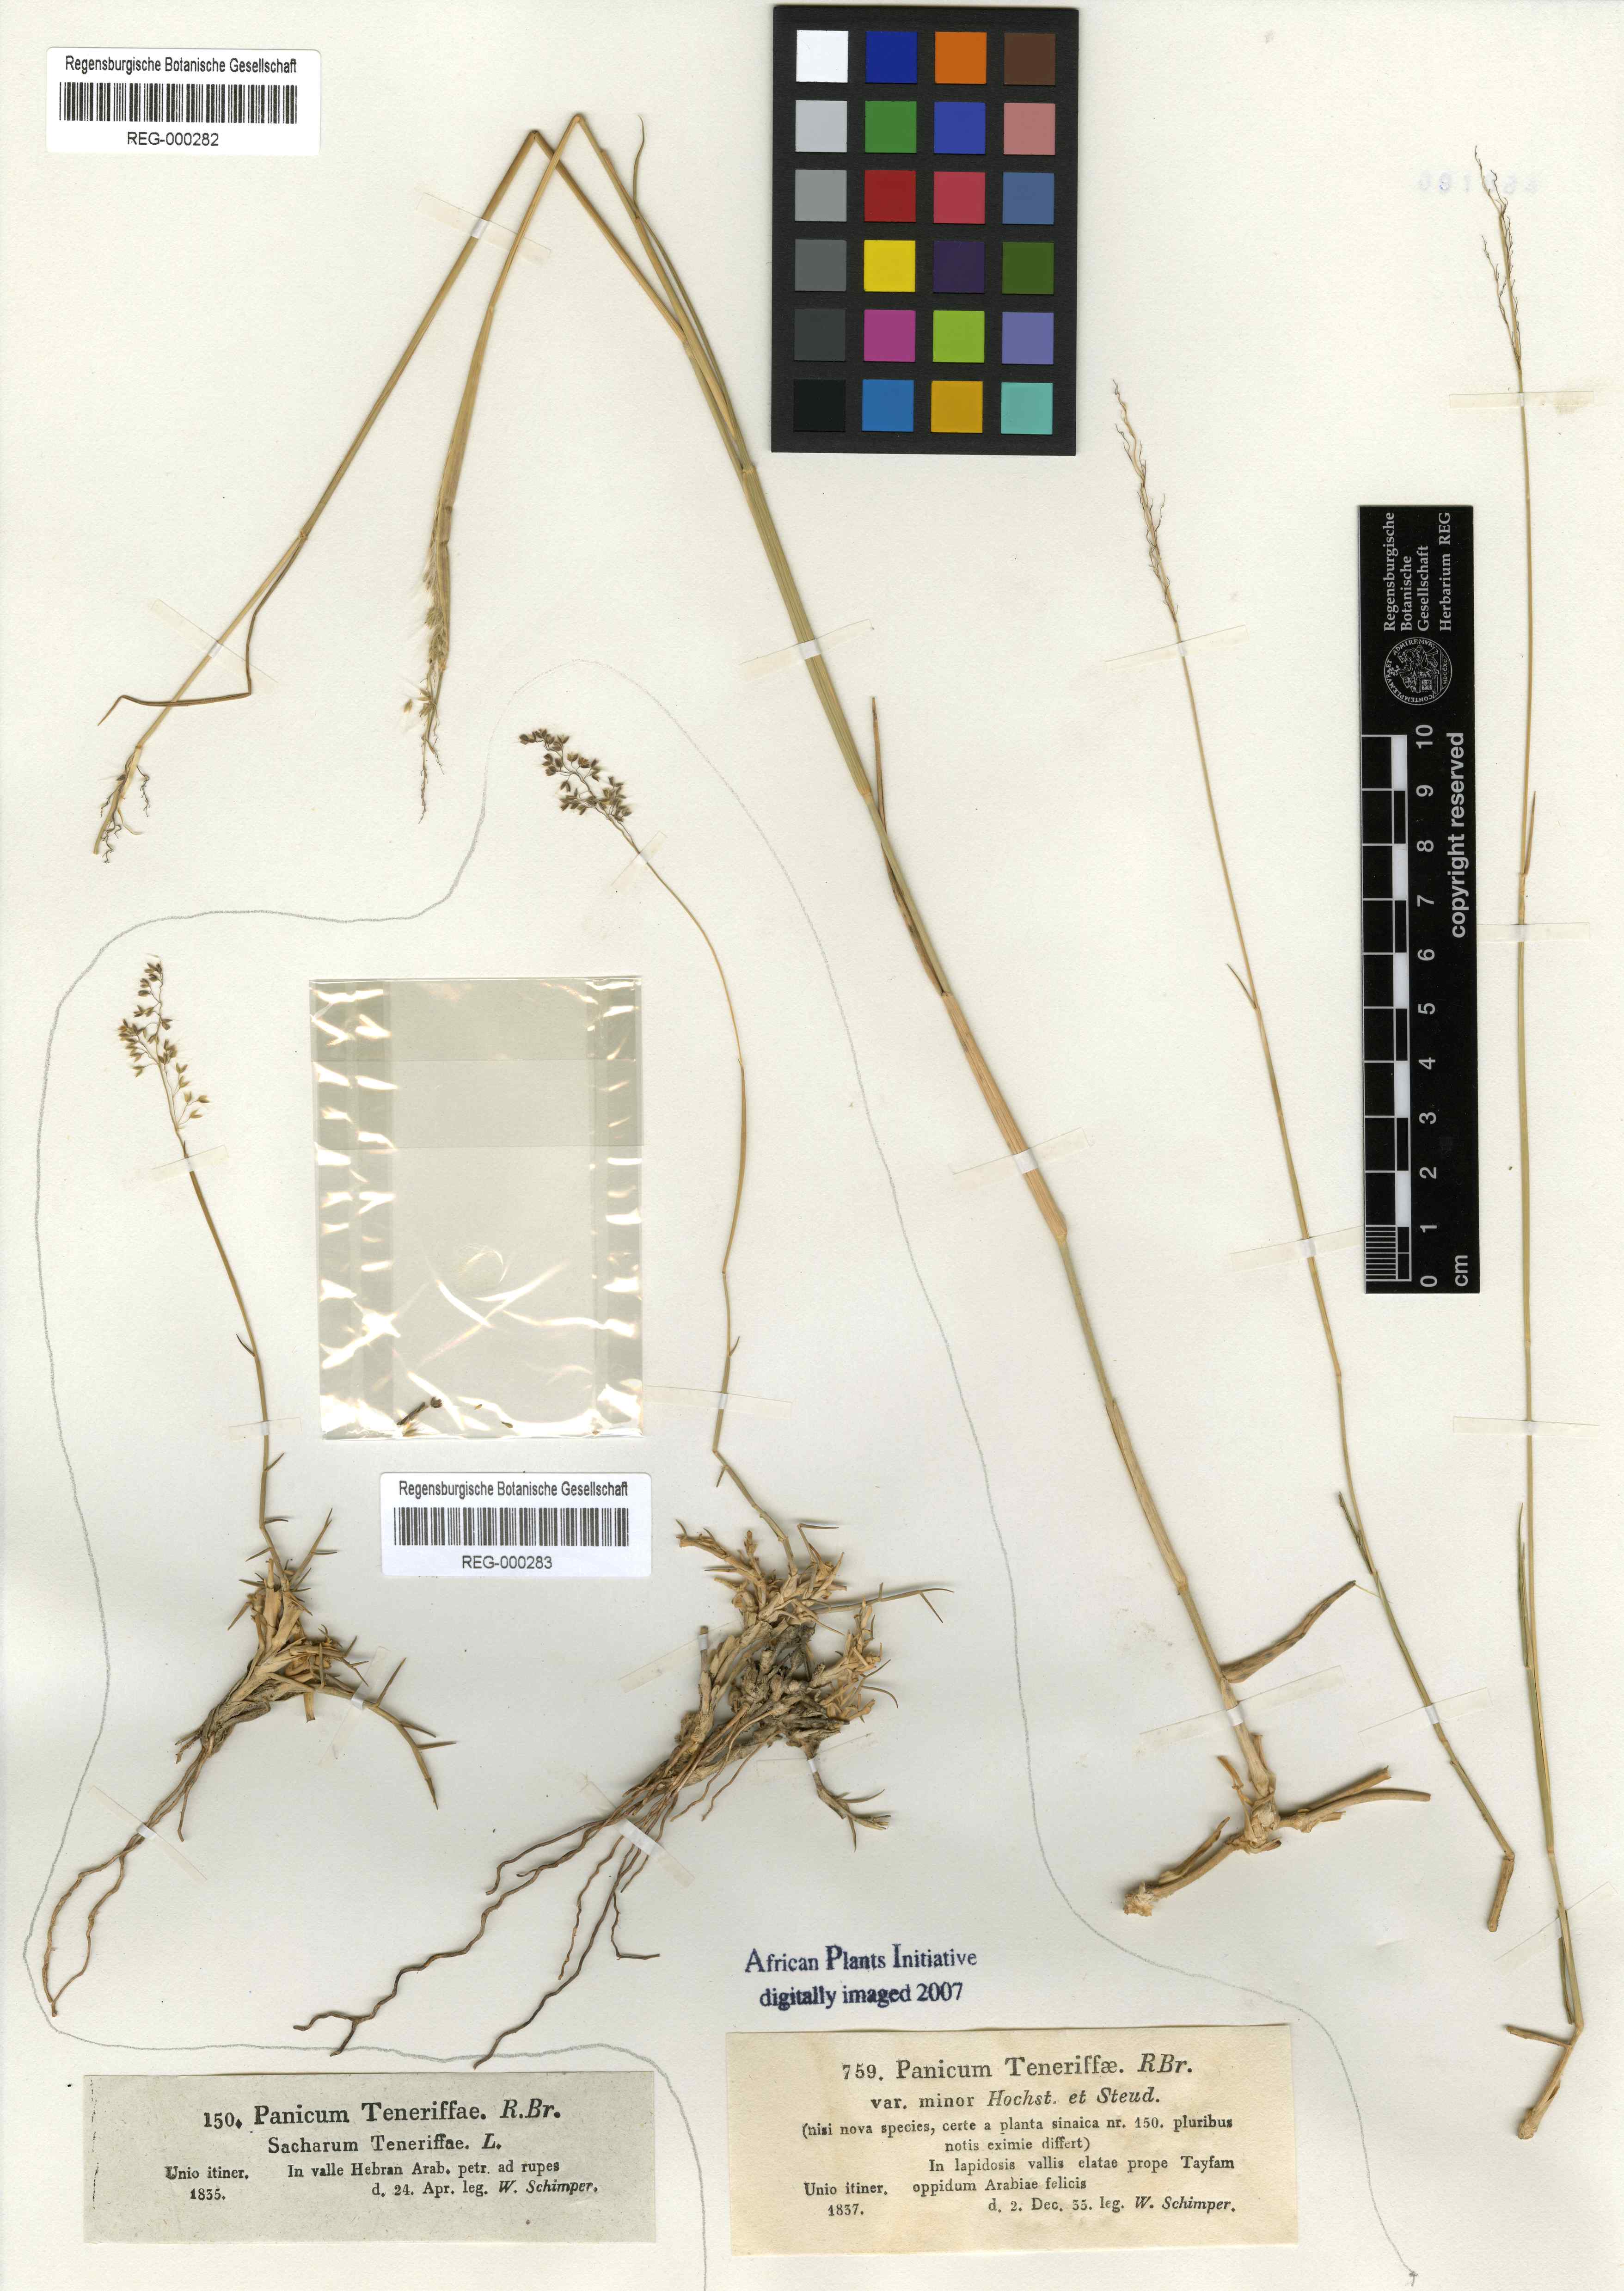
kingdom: Plantae
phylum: Tracheophyta
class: Liliopsida
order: Poales
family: Poaceae
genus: Tricholaena
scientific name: Tricholaena teneriffae
